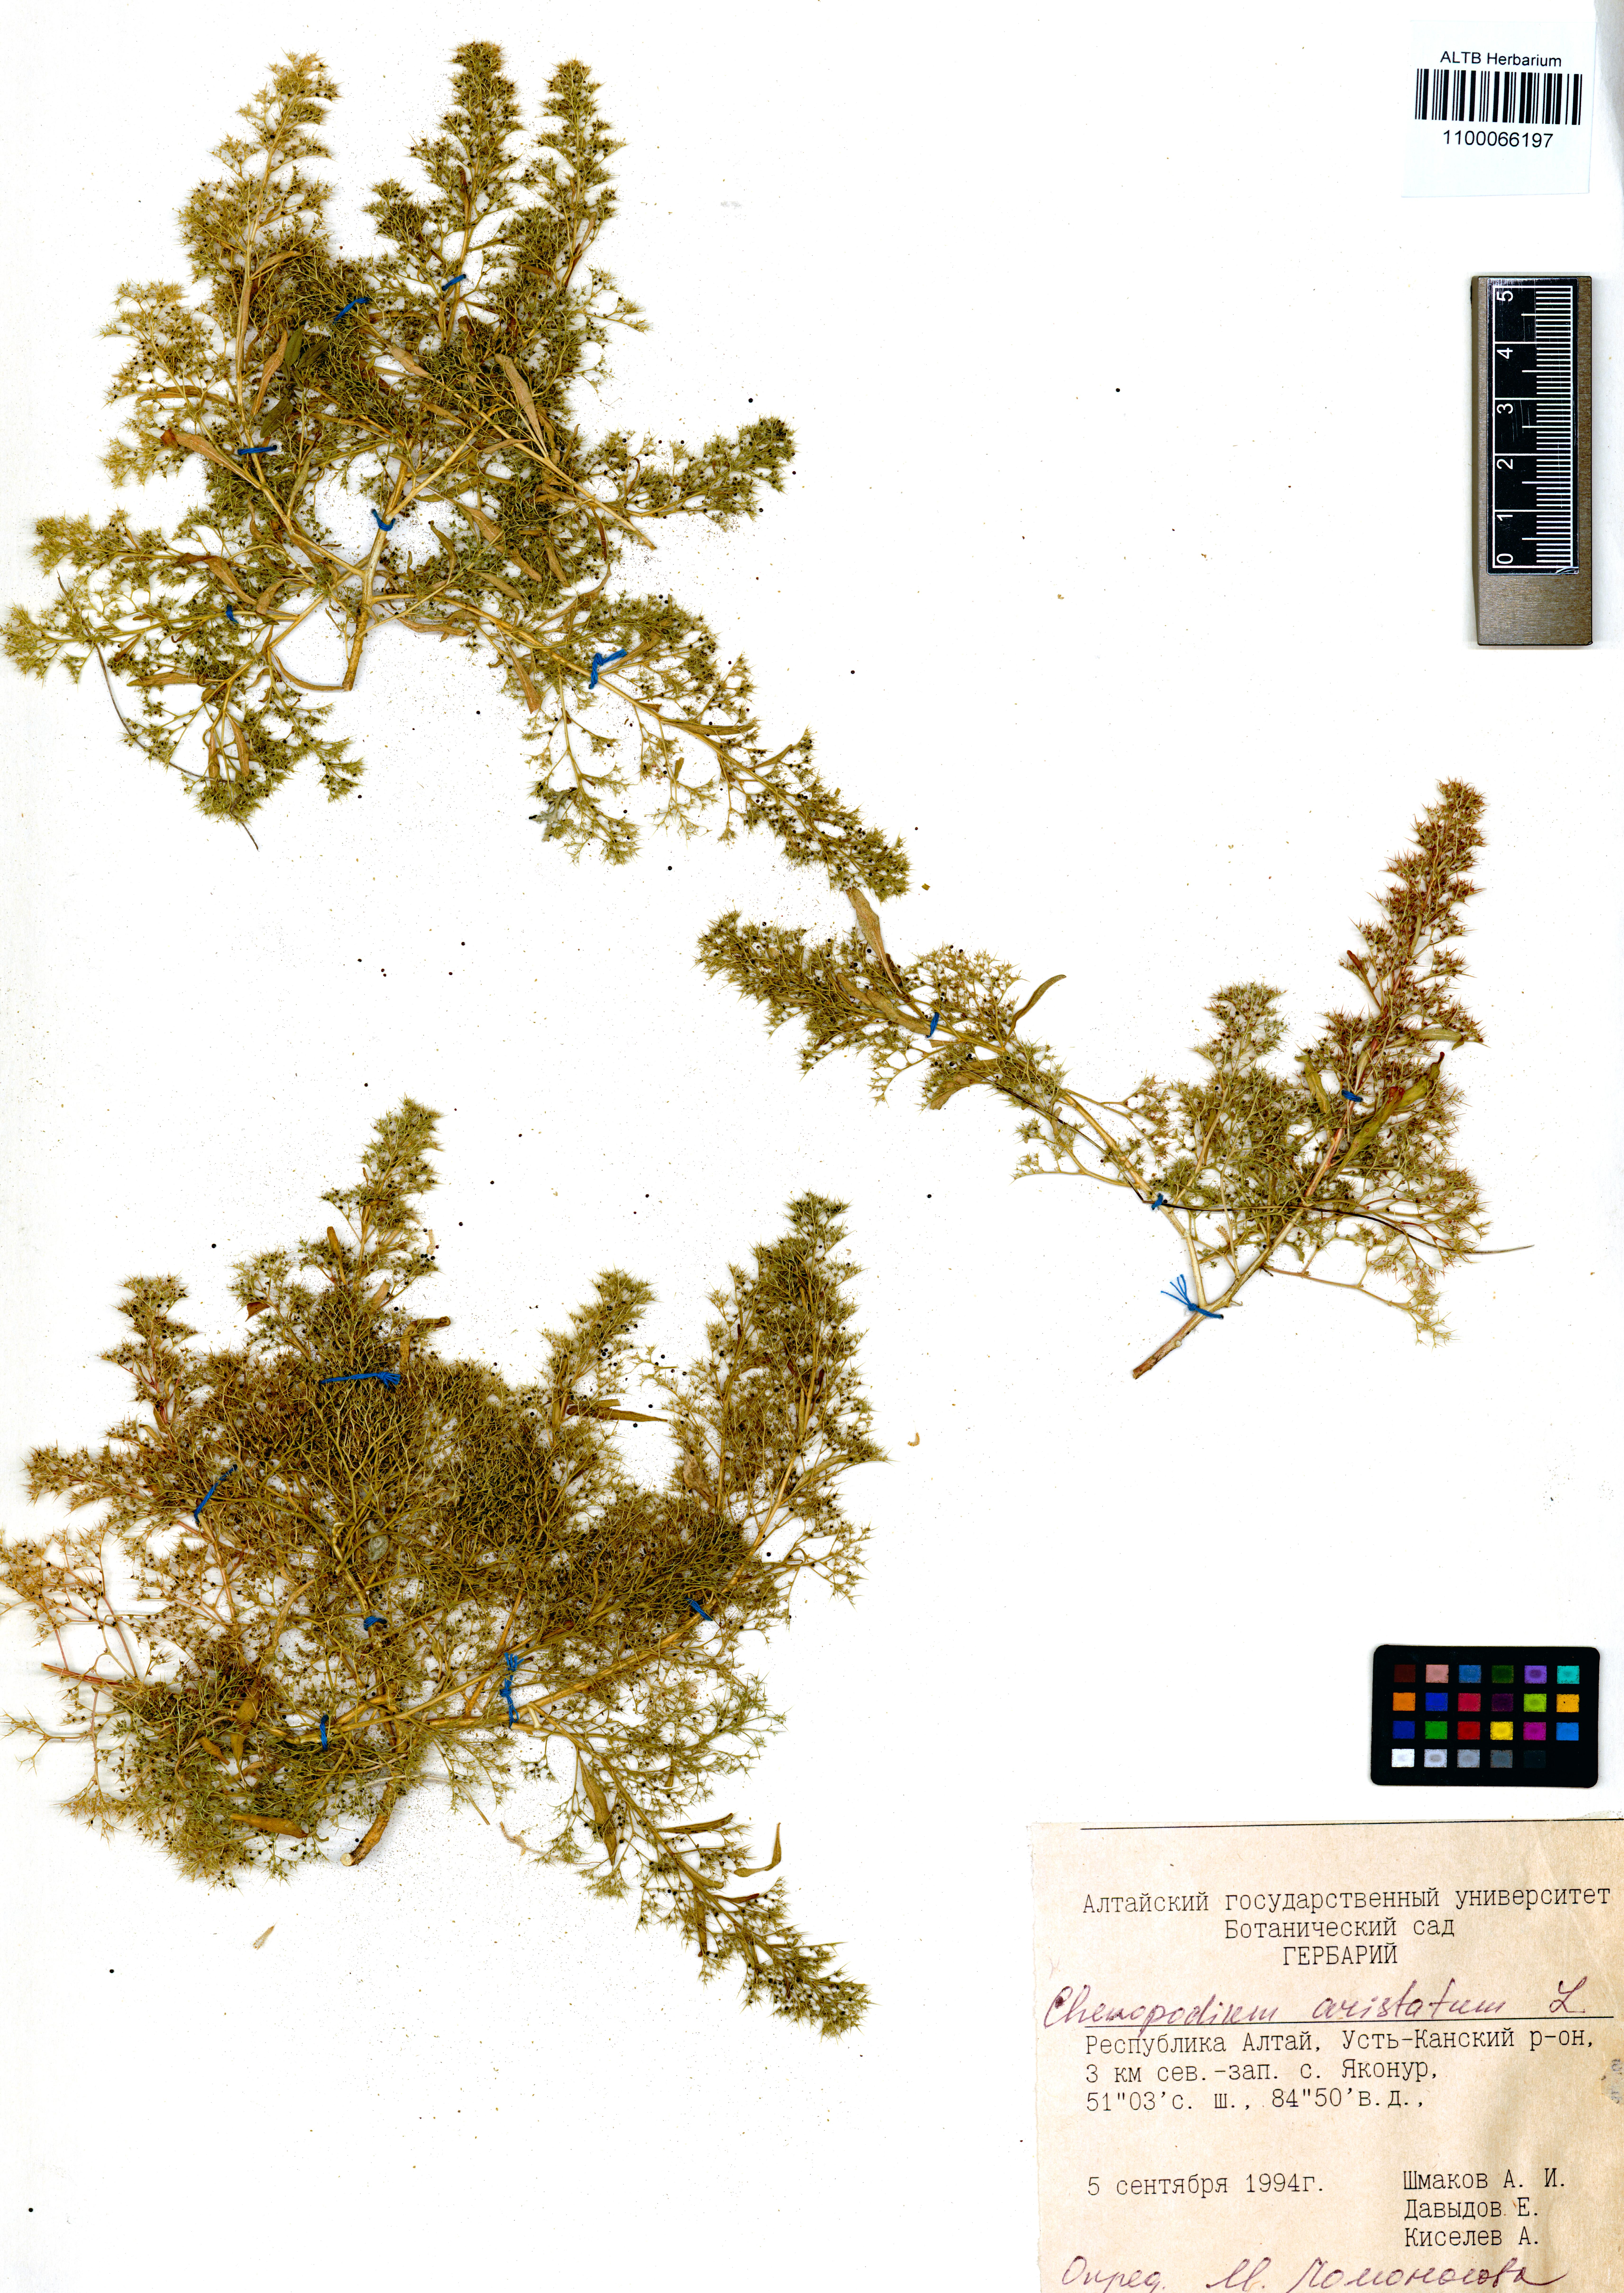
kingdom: Plantae
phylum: Tracheophyta
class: Magnoliopsida
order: Caryophyllales
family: Amaranthaceae
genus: Teloxys
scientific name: Teloxys aristata
